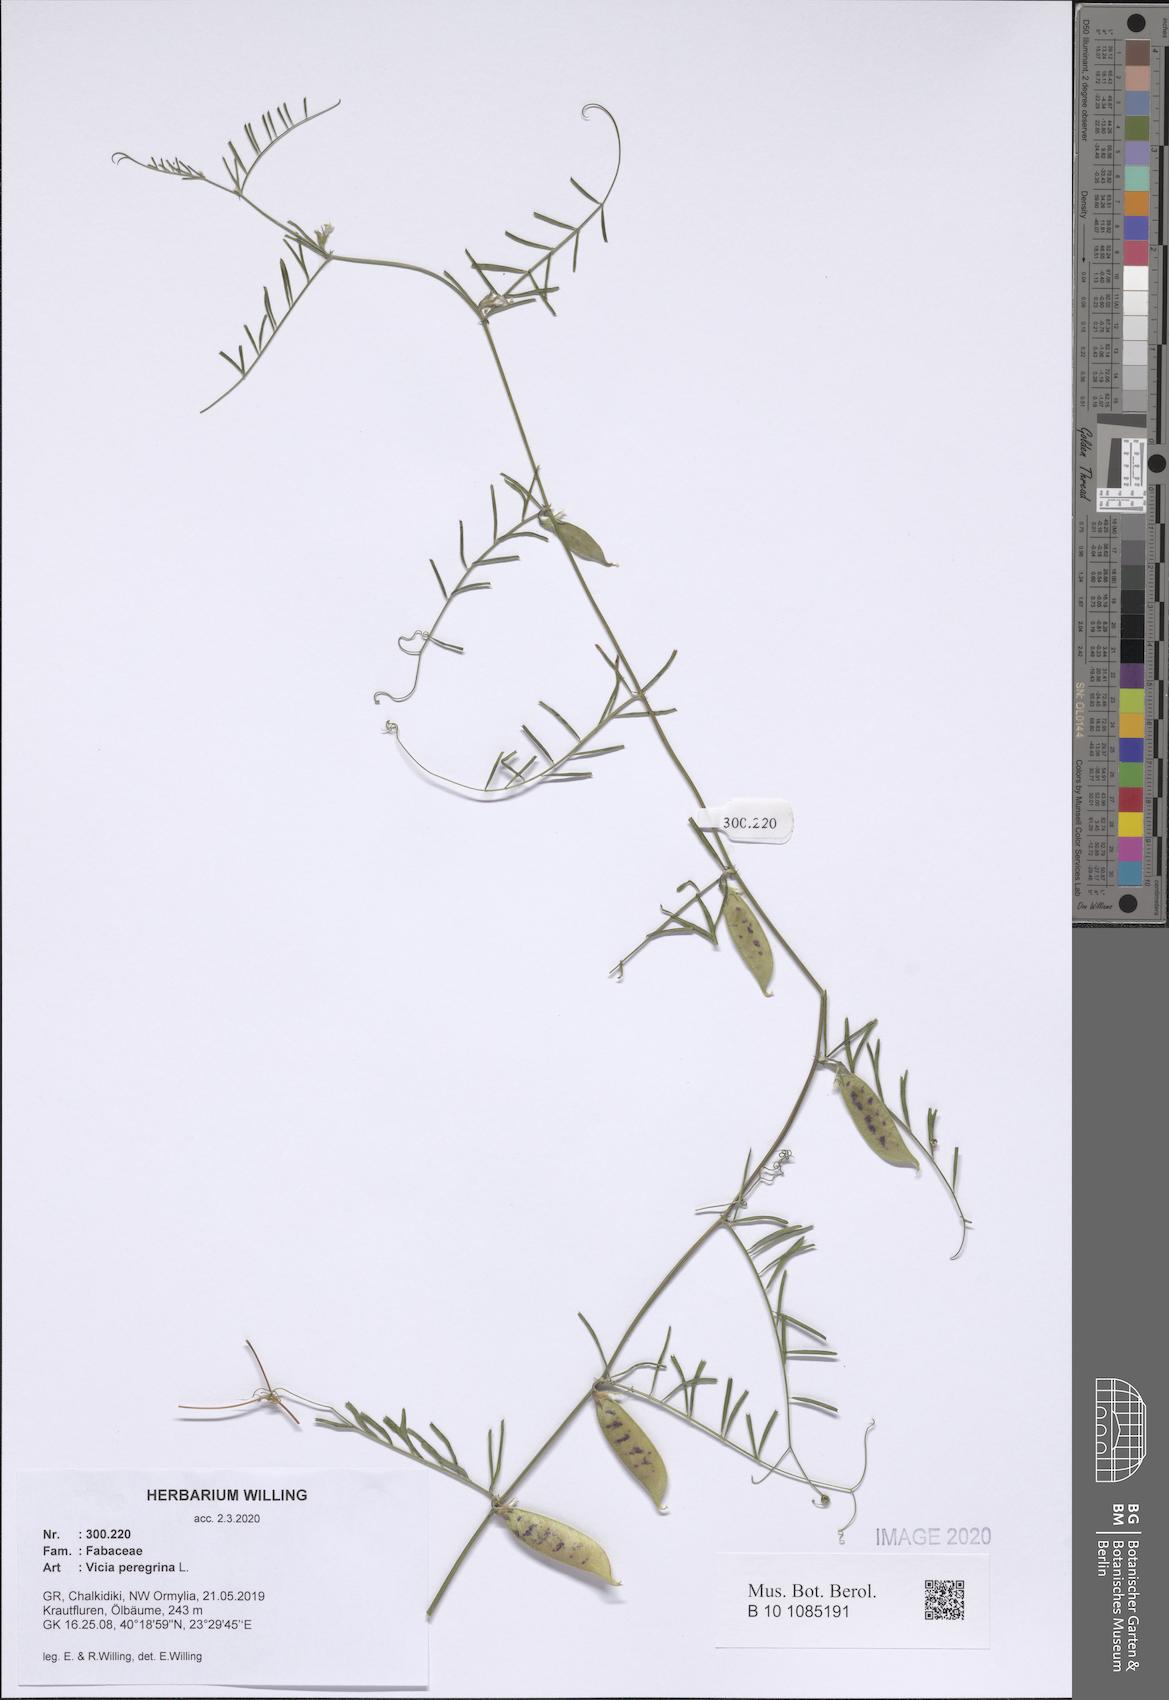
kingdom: Plantae
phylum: Tracheophyta
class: Magnoliopsida
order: Fabales
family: Fabaceae
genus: Vicia
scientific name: Vicia peregrina
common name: Broad-pod vetch
